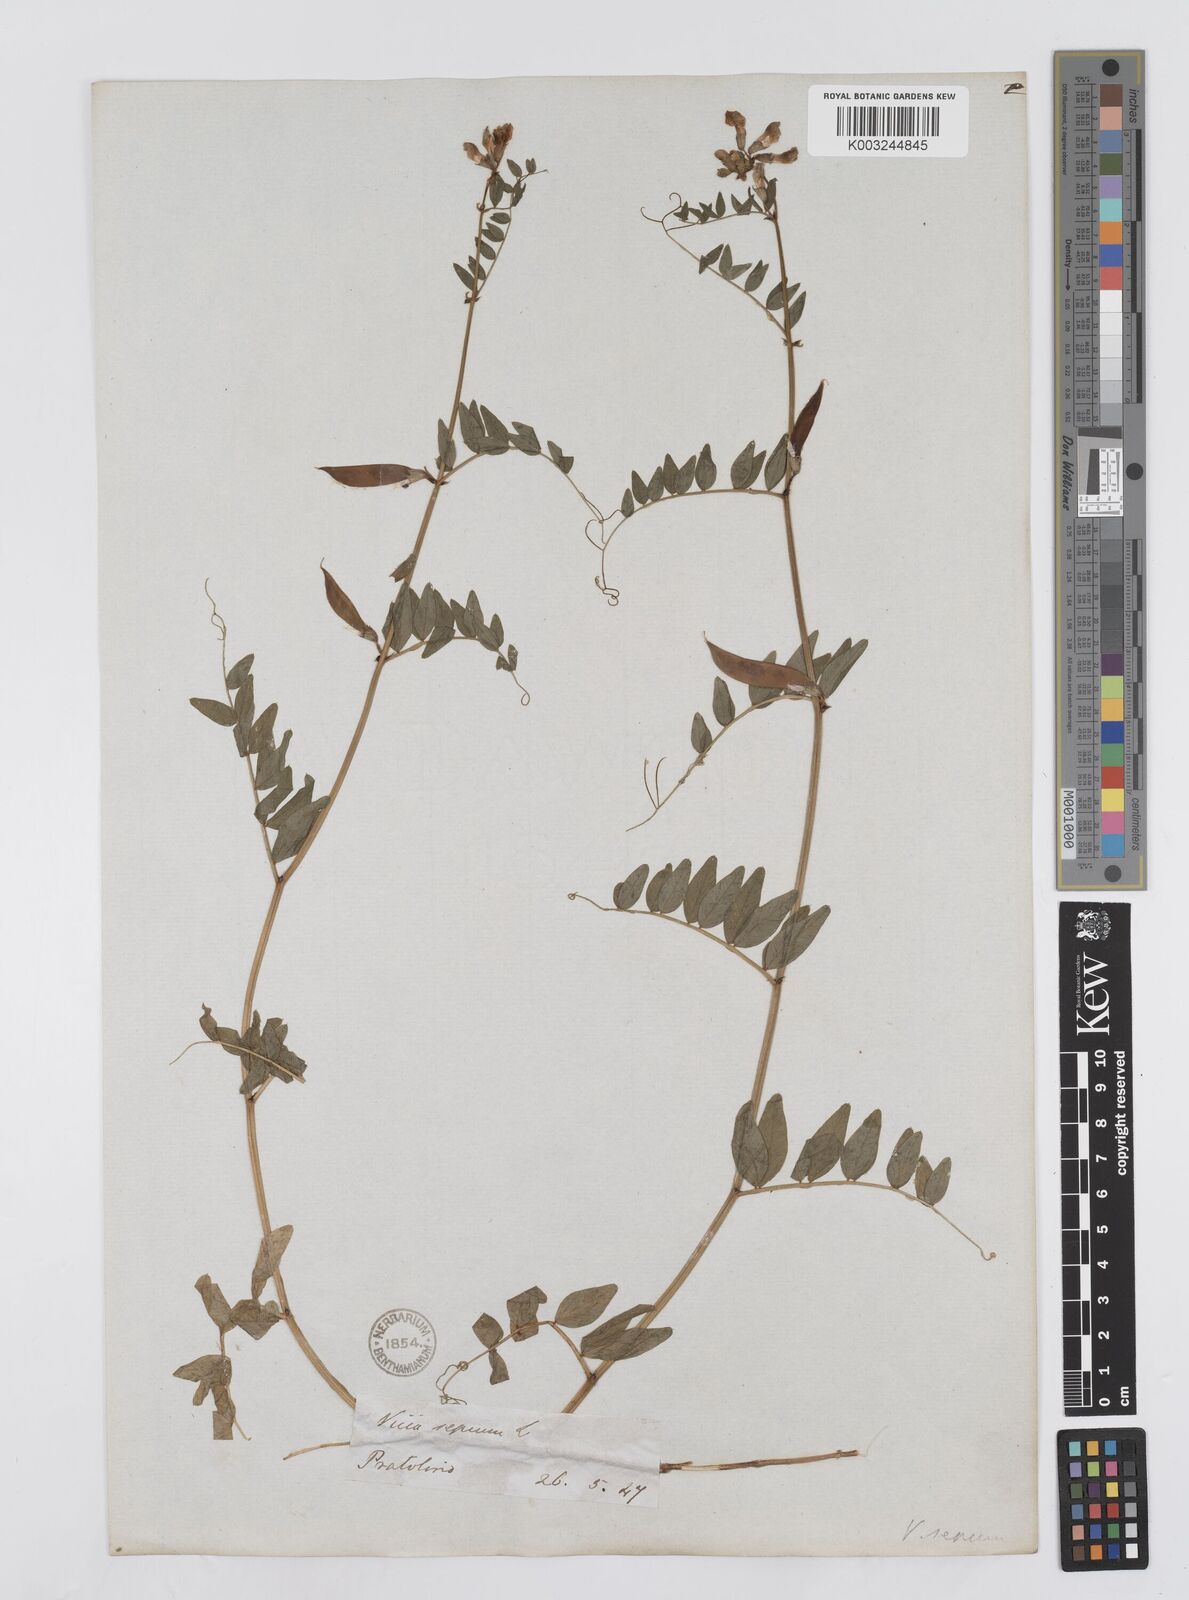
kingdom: Plantae
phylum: Tracheophyta
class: Magnoliopsida
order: Fabales
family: Fabaceae
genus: Vicia
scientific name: Vicia sepium
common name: Bush vetch
